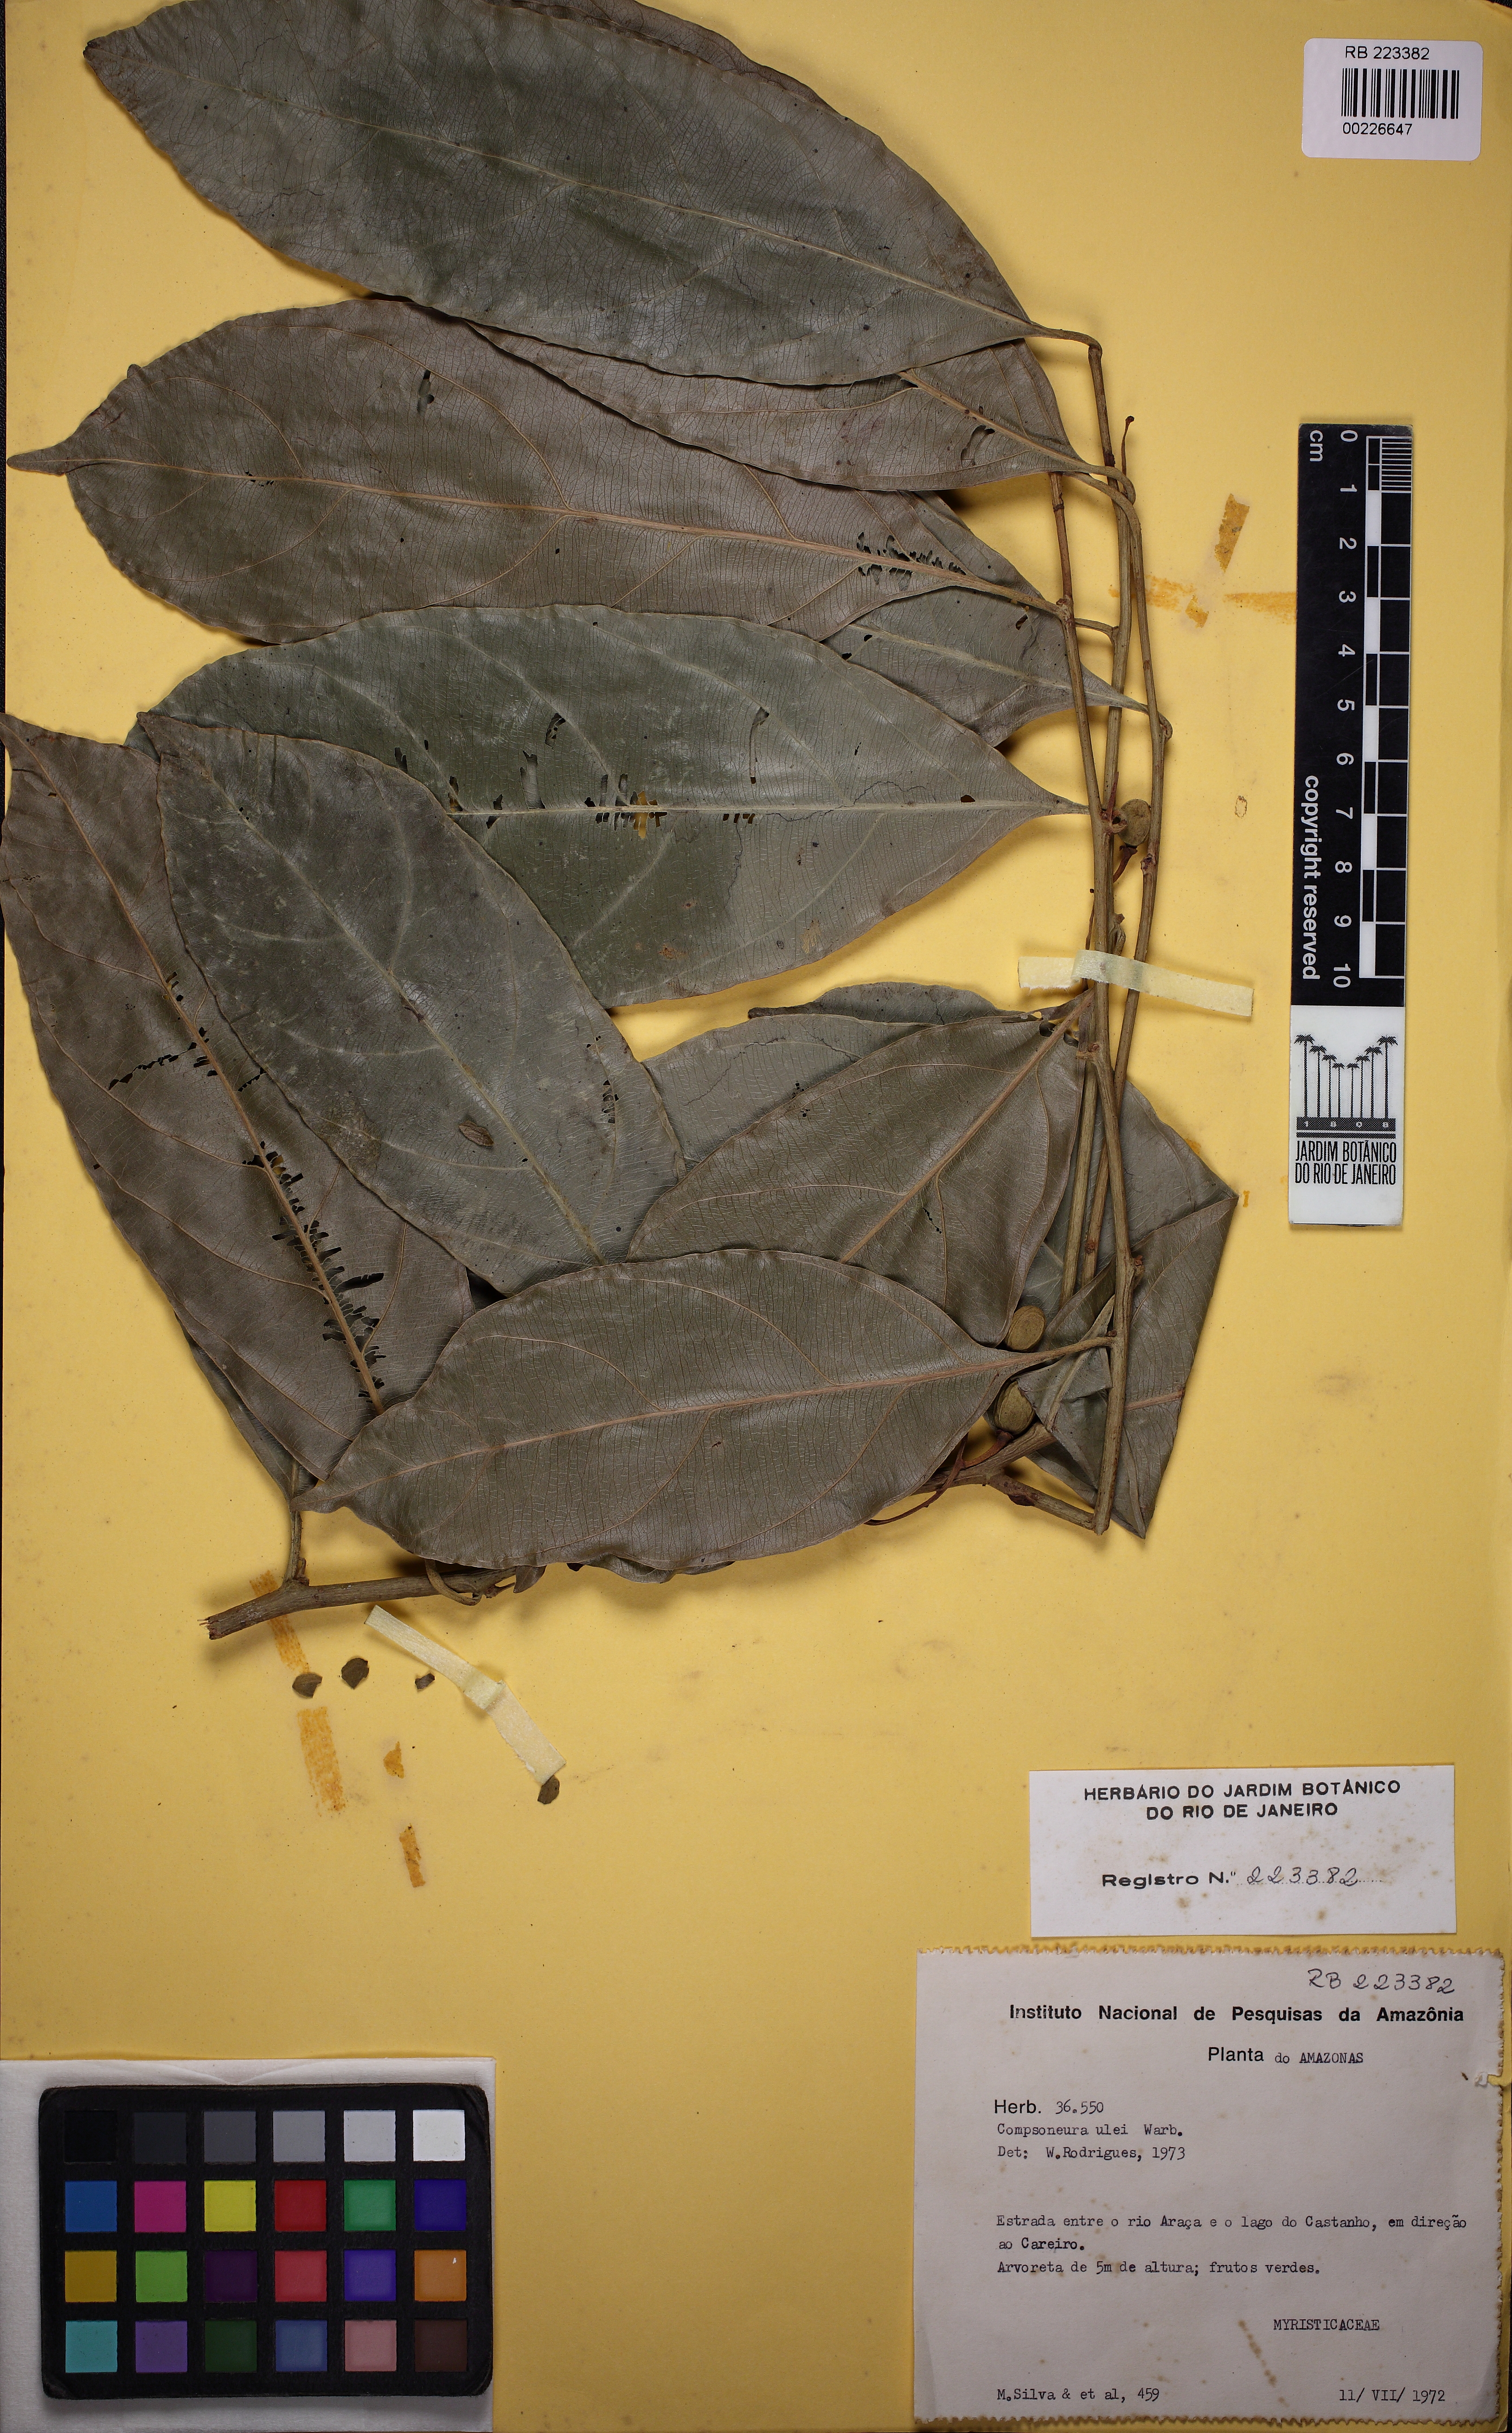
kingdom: Plantae
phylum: Tracheophyta
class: Magnoliopsida
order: Magnoliales
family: Myristicaceae
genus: Compsoneura
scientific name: Compsoneura ulei
